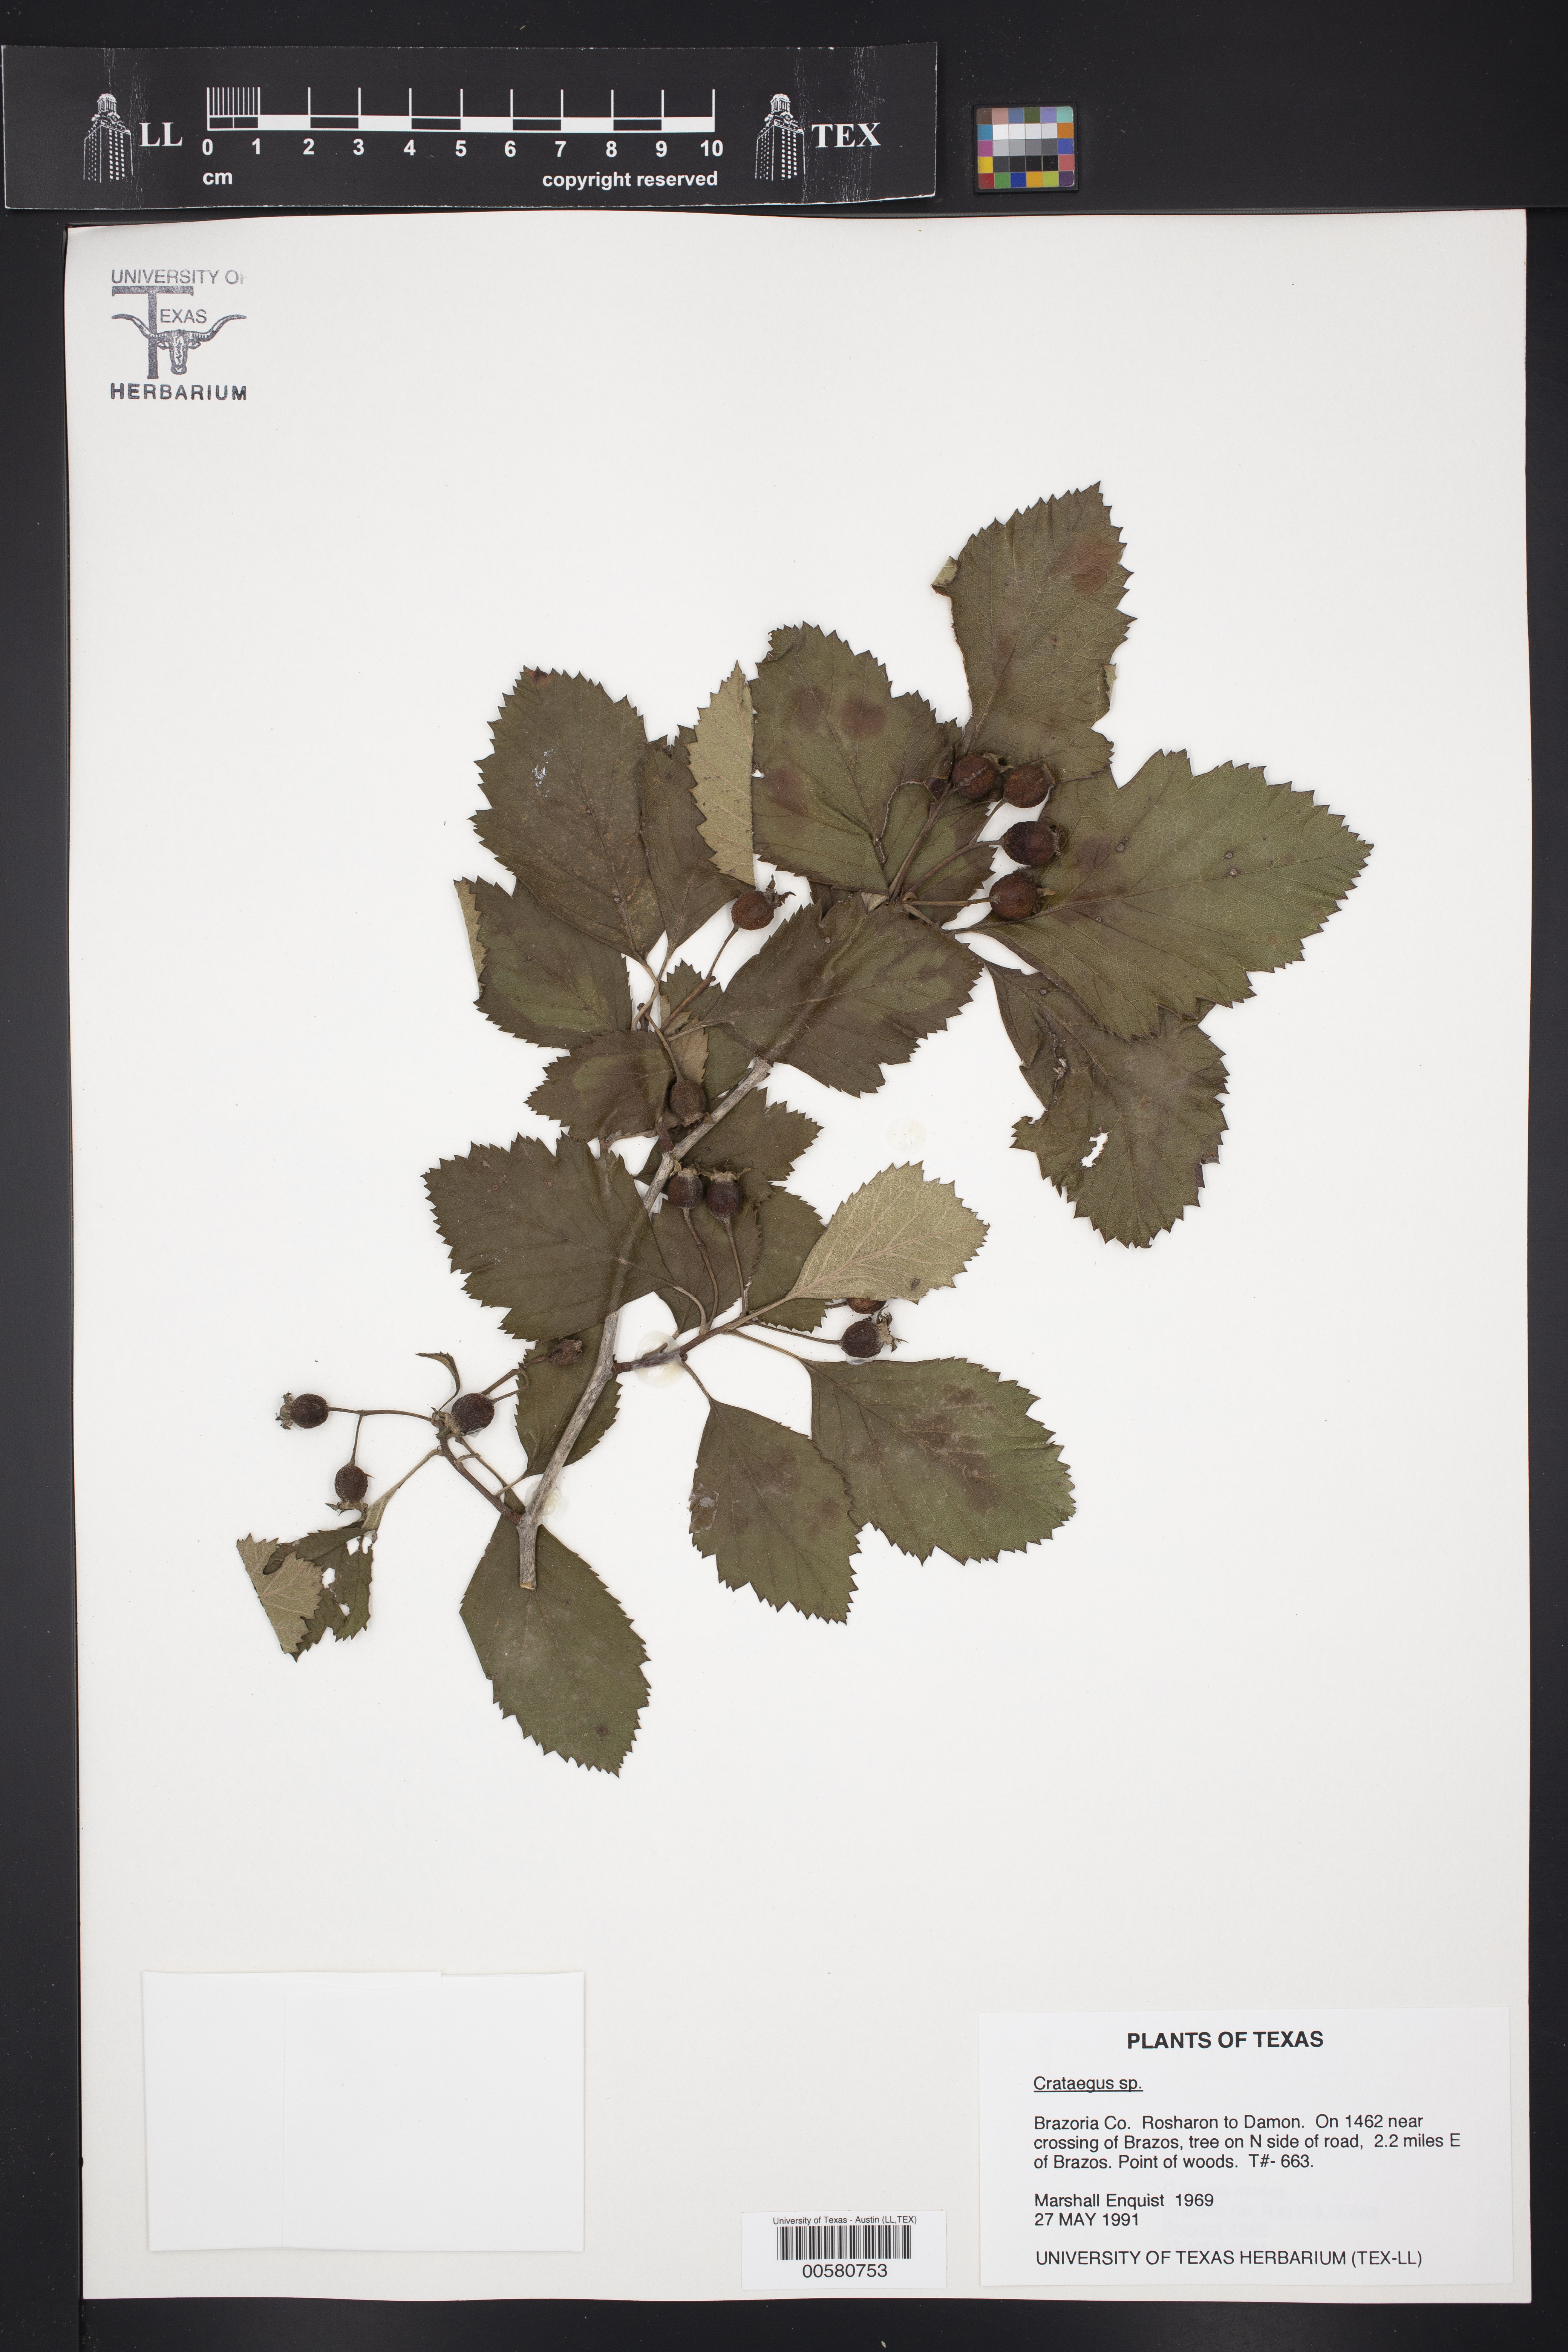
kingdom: Plantae
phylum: Tracheophyta
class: Magnoliopsida
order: Rosales
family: Rosaceae
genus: Crataegus
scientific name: Crataegus
